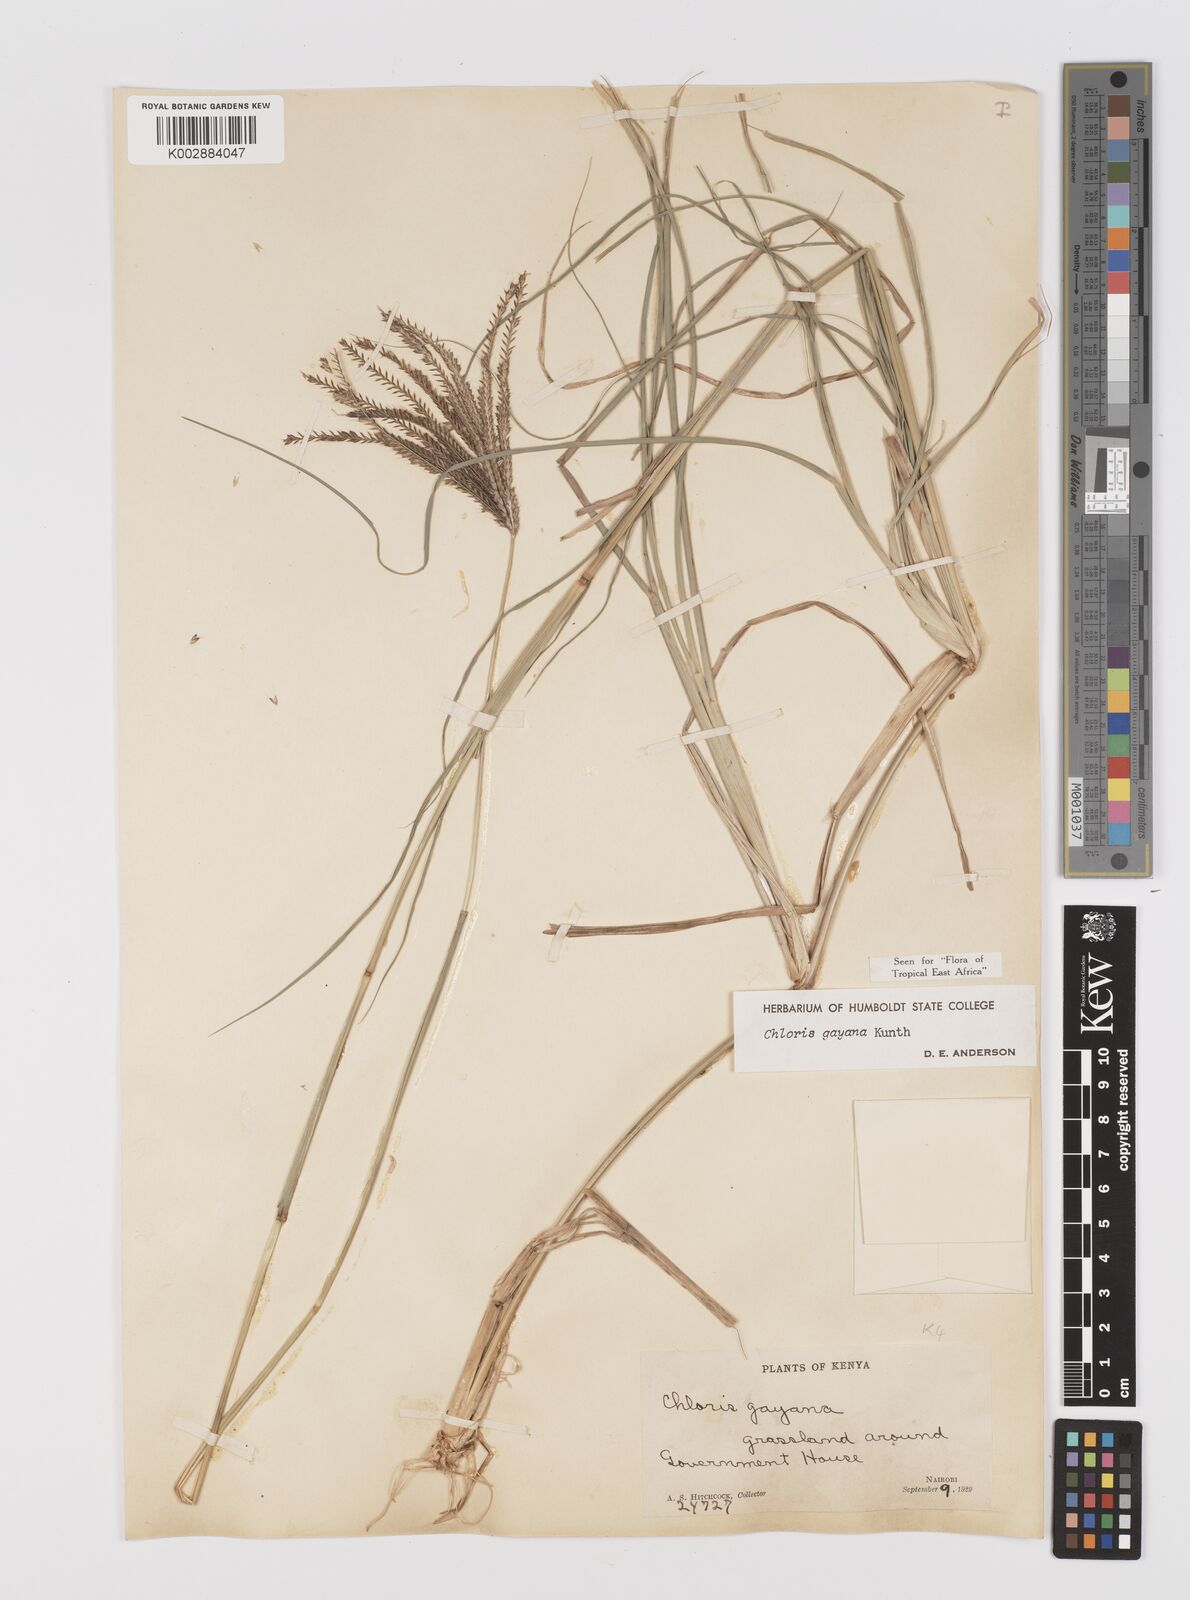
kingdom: Plantae
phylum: Tracheophyta
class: Liliopsida
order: Poales
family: Poaceae
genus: Chloris
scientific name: Chloris gayana
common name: Rhodes grass
